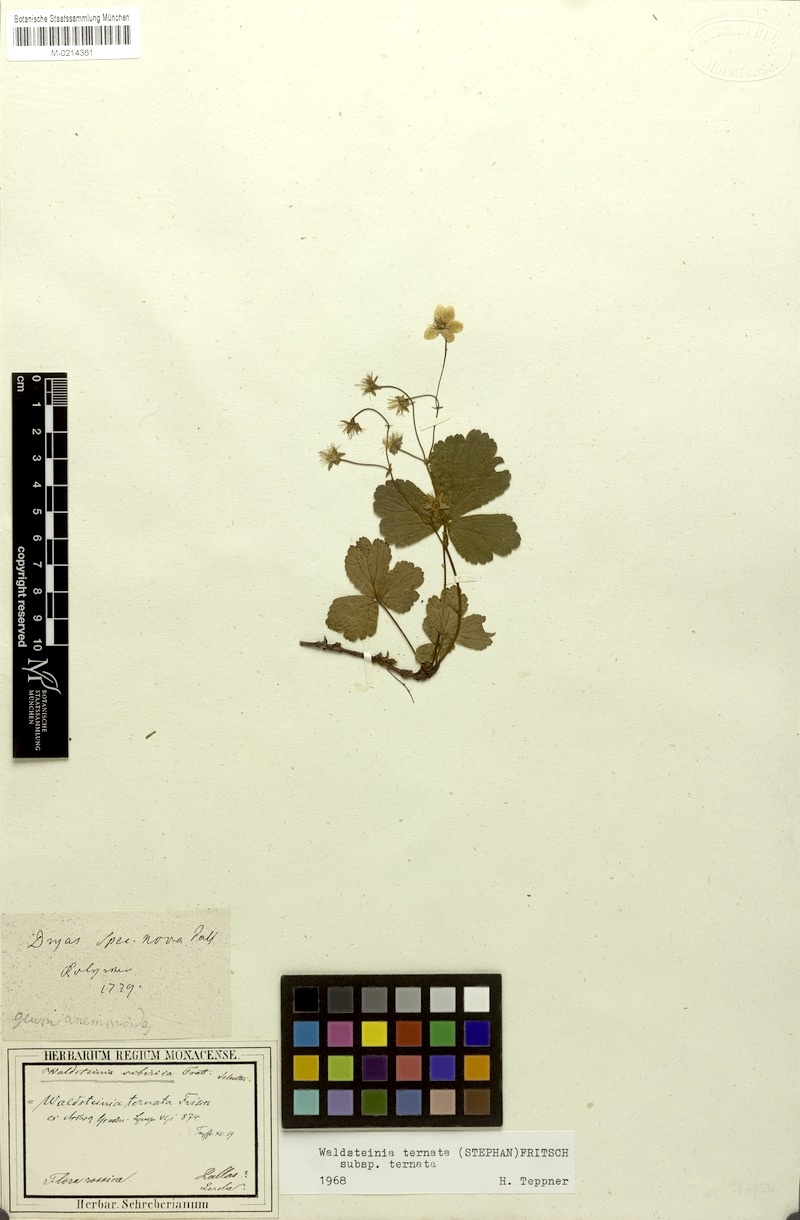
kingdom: Plantae
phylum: Tracheophyta
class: Magnoliopsida
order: Rosales
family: Rosaceae
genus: Geum
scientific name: Geum ternatum
